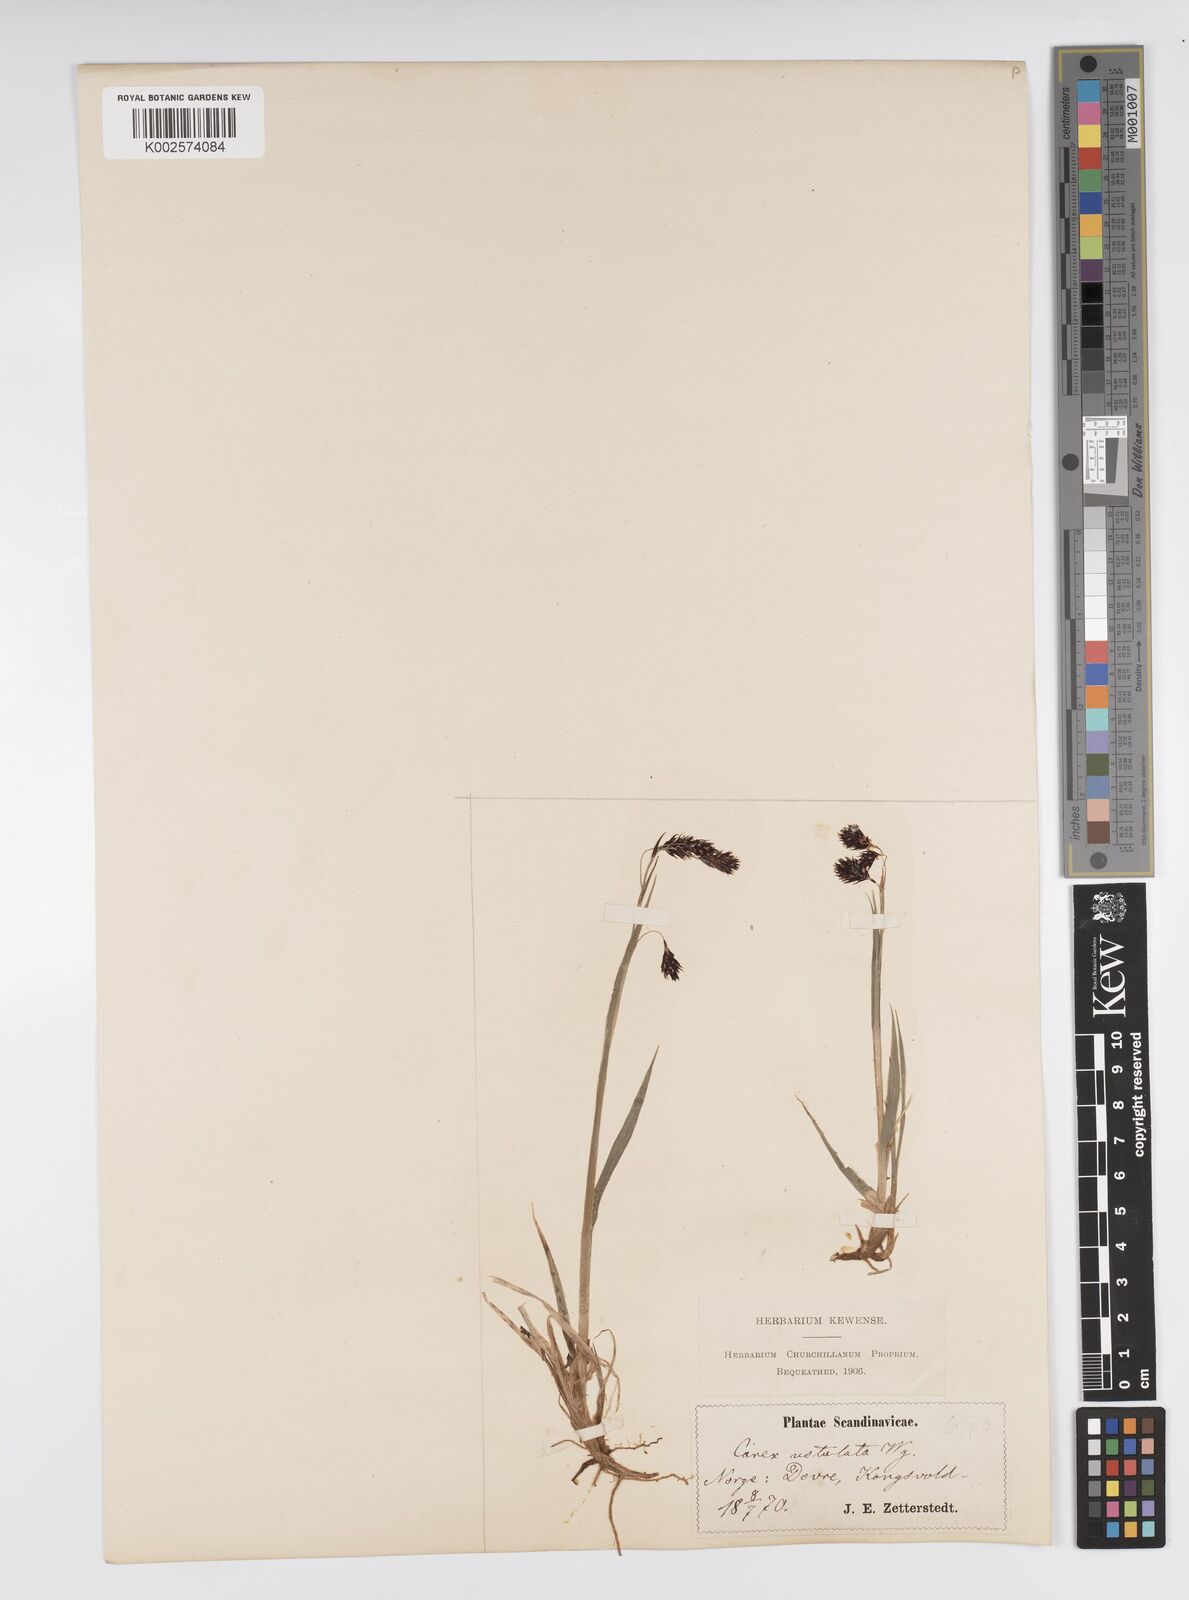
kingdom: Plantae
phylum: Tracheophyta
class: Liliopsida
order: Poales
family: Cyperaceae
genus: Carex
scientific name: Carex atrofusca
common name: Scorched alpine-sedge
